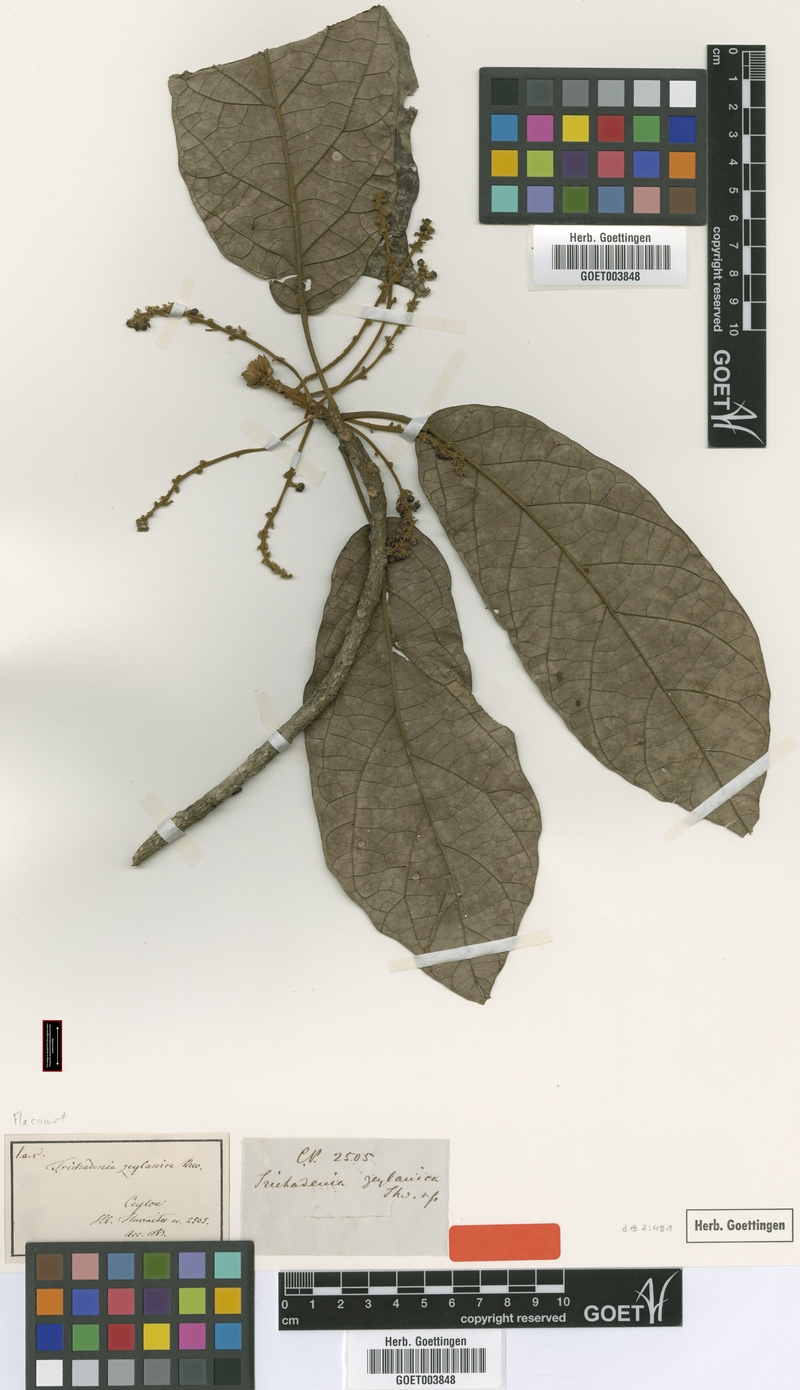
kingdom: Plantae
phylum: Tracheophyta
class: Magnoliopsida
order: Malpighiales
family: Achariaceae
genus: Trichadenia
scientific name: Trichadenia zeylanica
